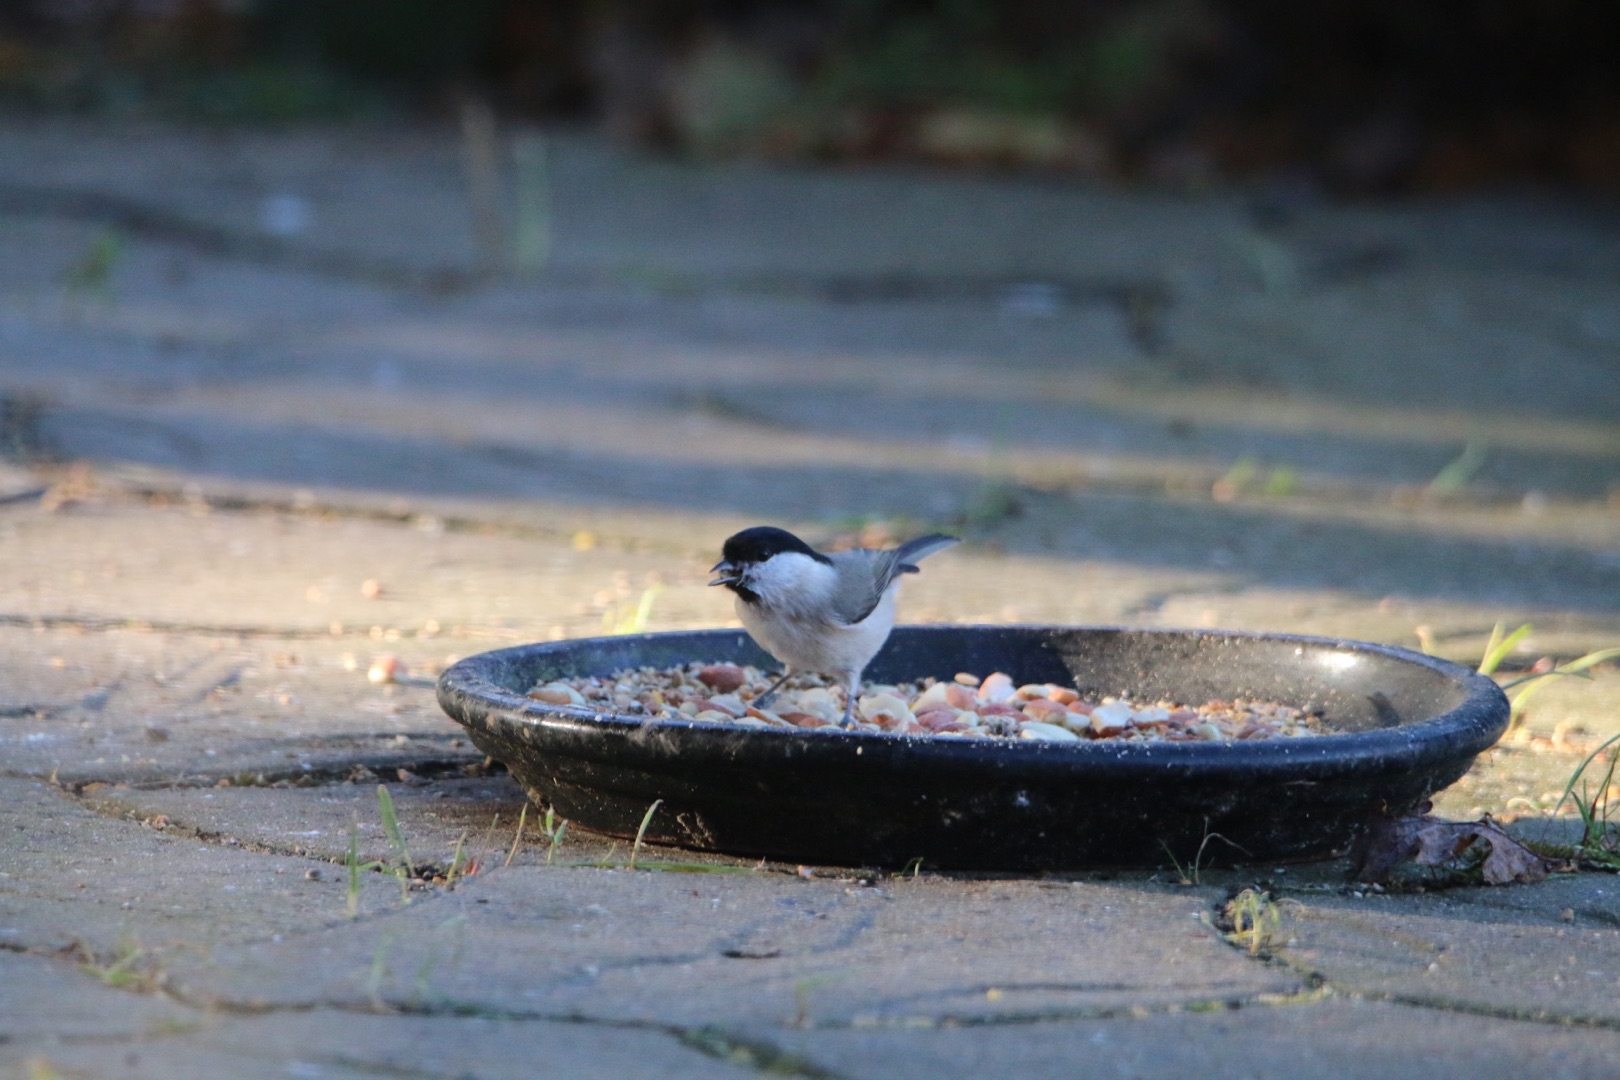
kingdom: Animalia
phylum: Chordata
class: Aves
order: Passeriformes
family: Paridae
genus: Poecile
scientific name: Poecile palustris
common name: Sumpmejse
